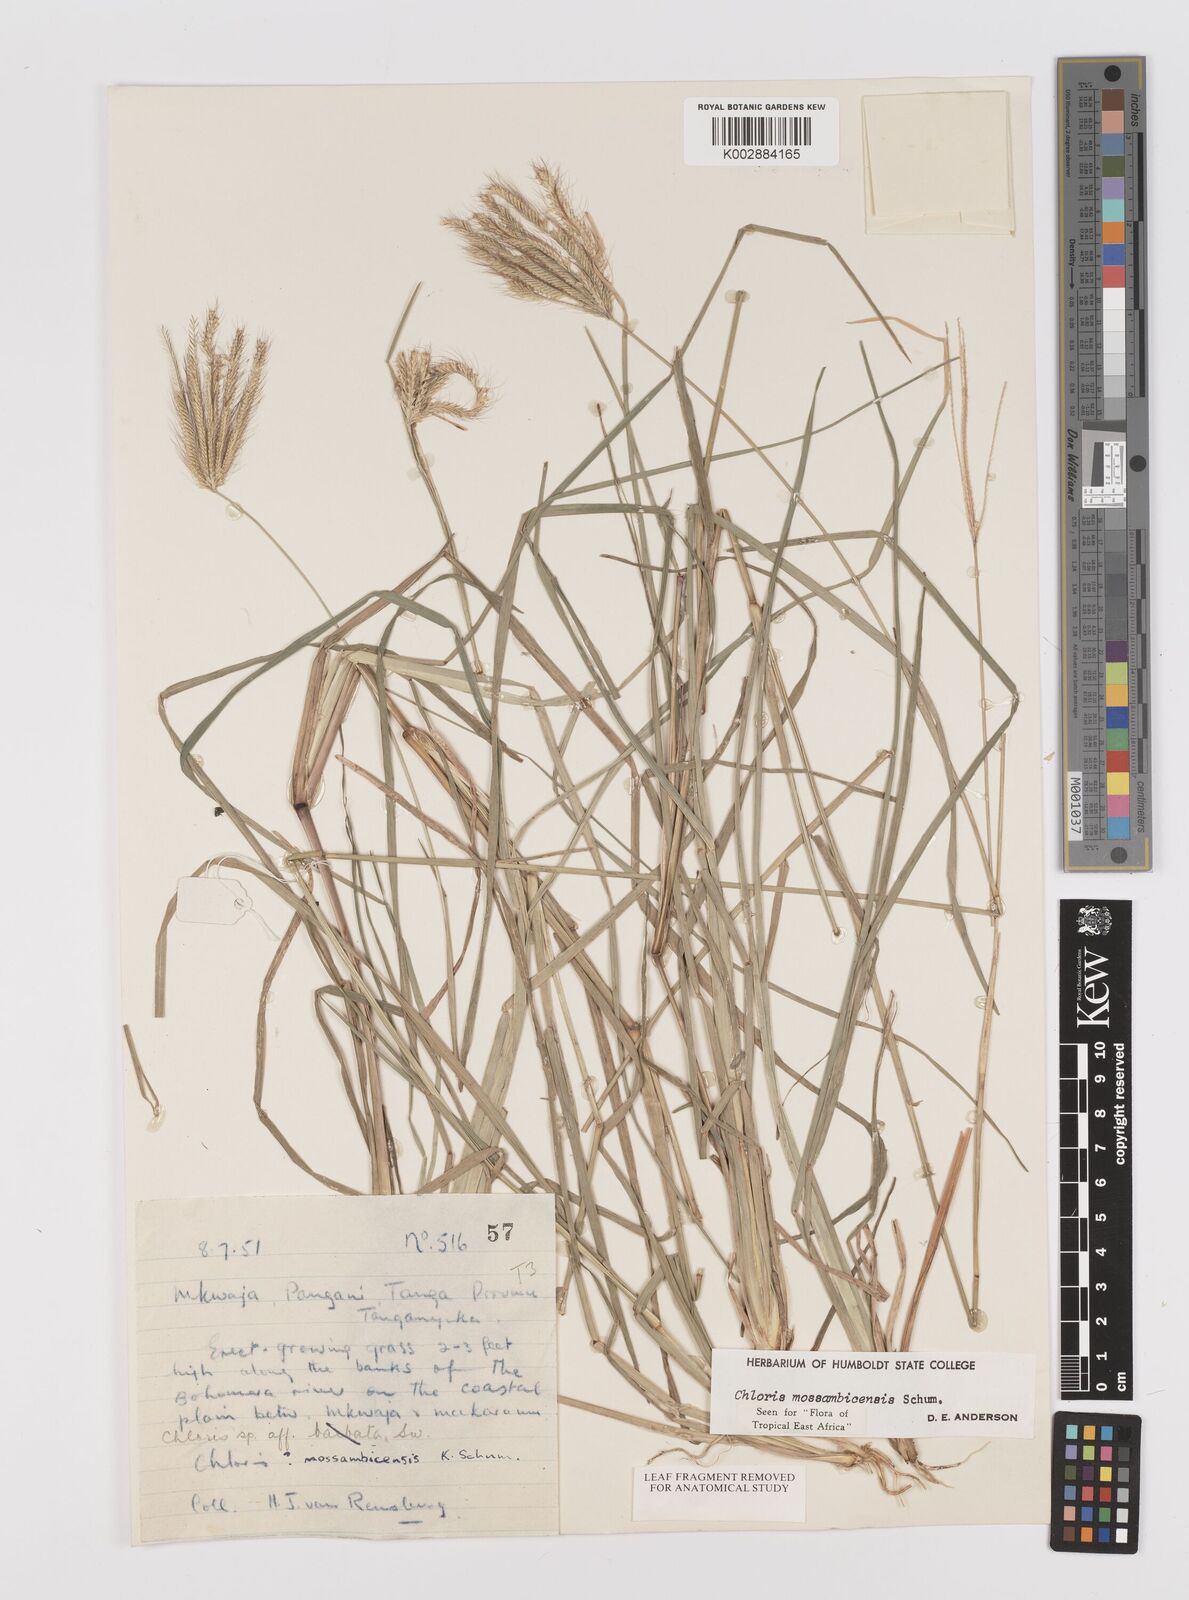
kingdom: Plantae
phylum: Tracheophyta
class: Liliopsida
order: Poales
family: Poaceae
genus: Chloris
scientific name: Chloris mossambicensis
